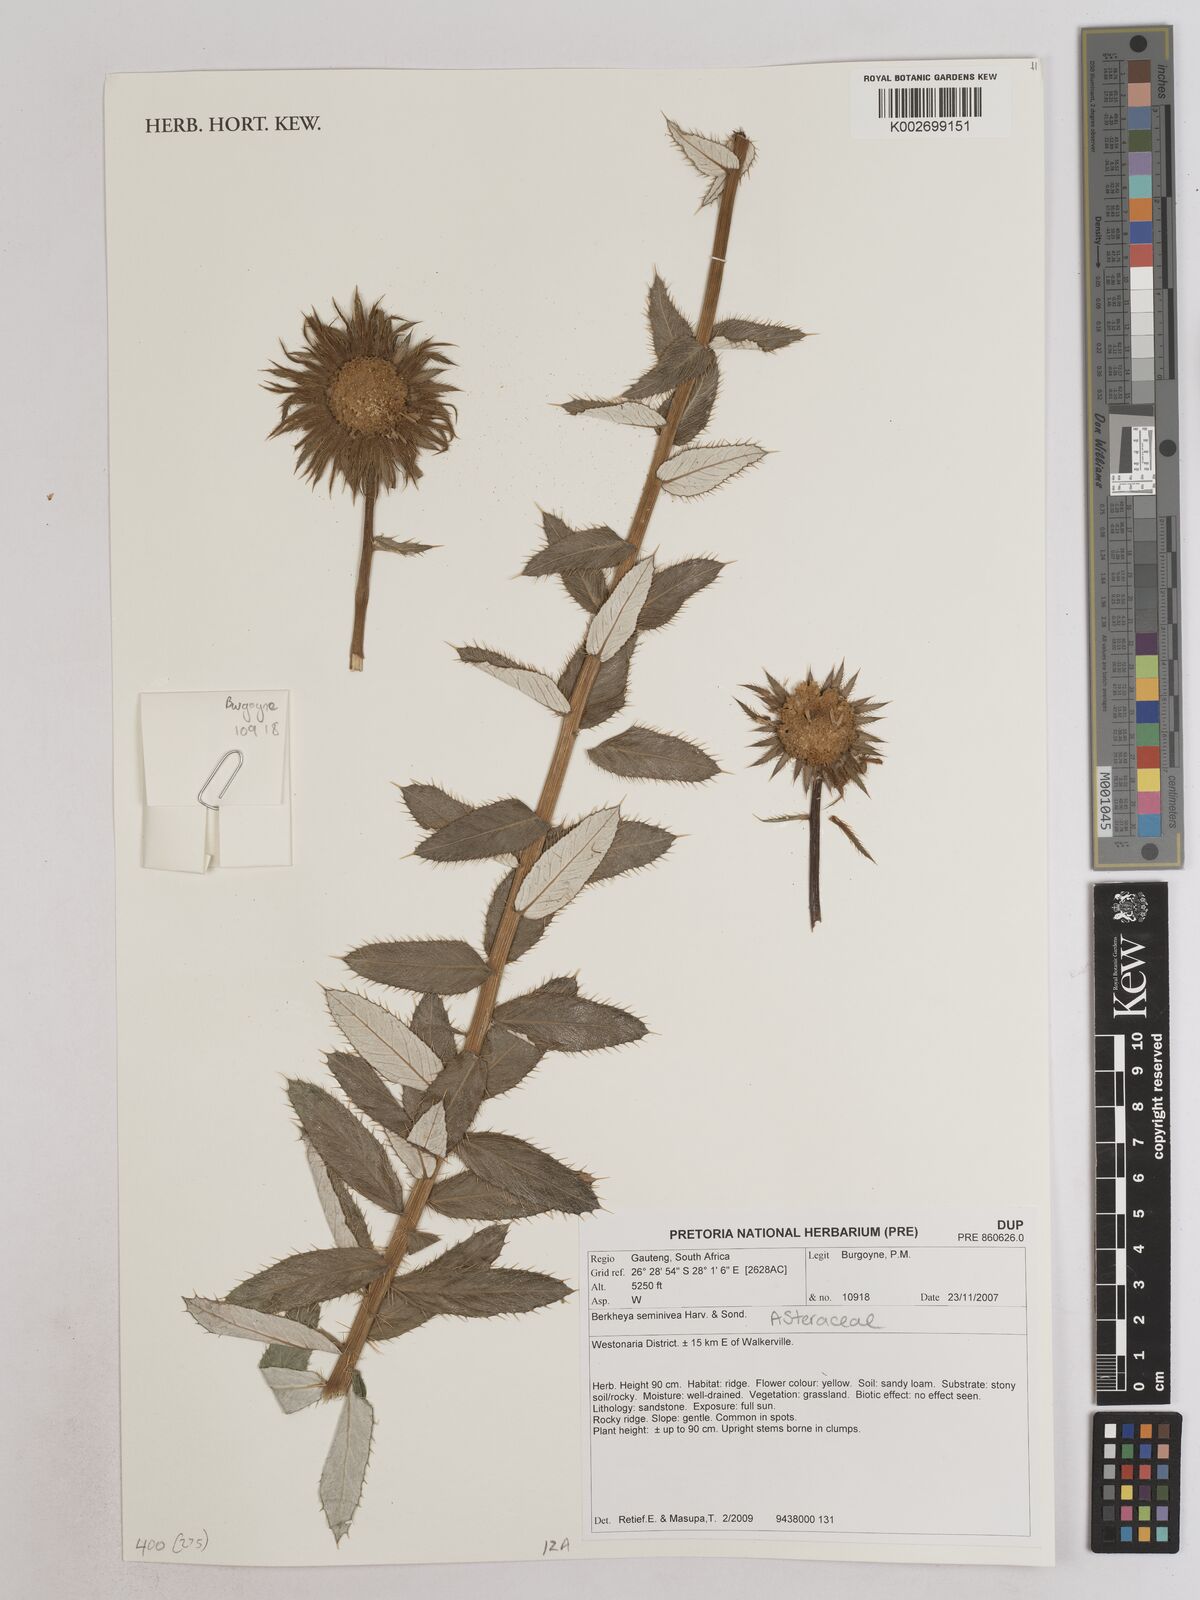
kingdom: Plantae
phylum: Tracheophyta
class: Magnoliopsida
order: Asterales
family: Asteraceae
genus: Berkheya
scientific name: Berkheya seminivea
